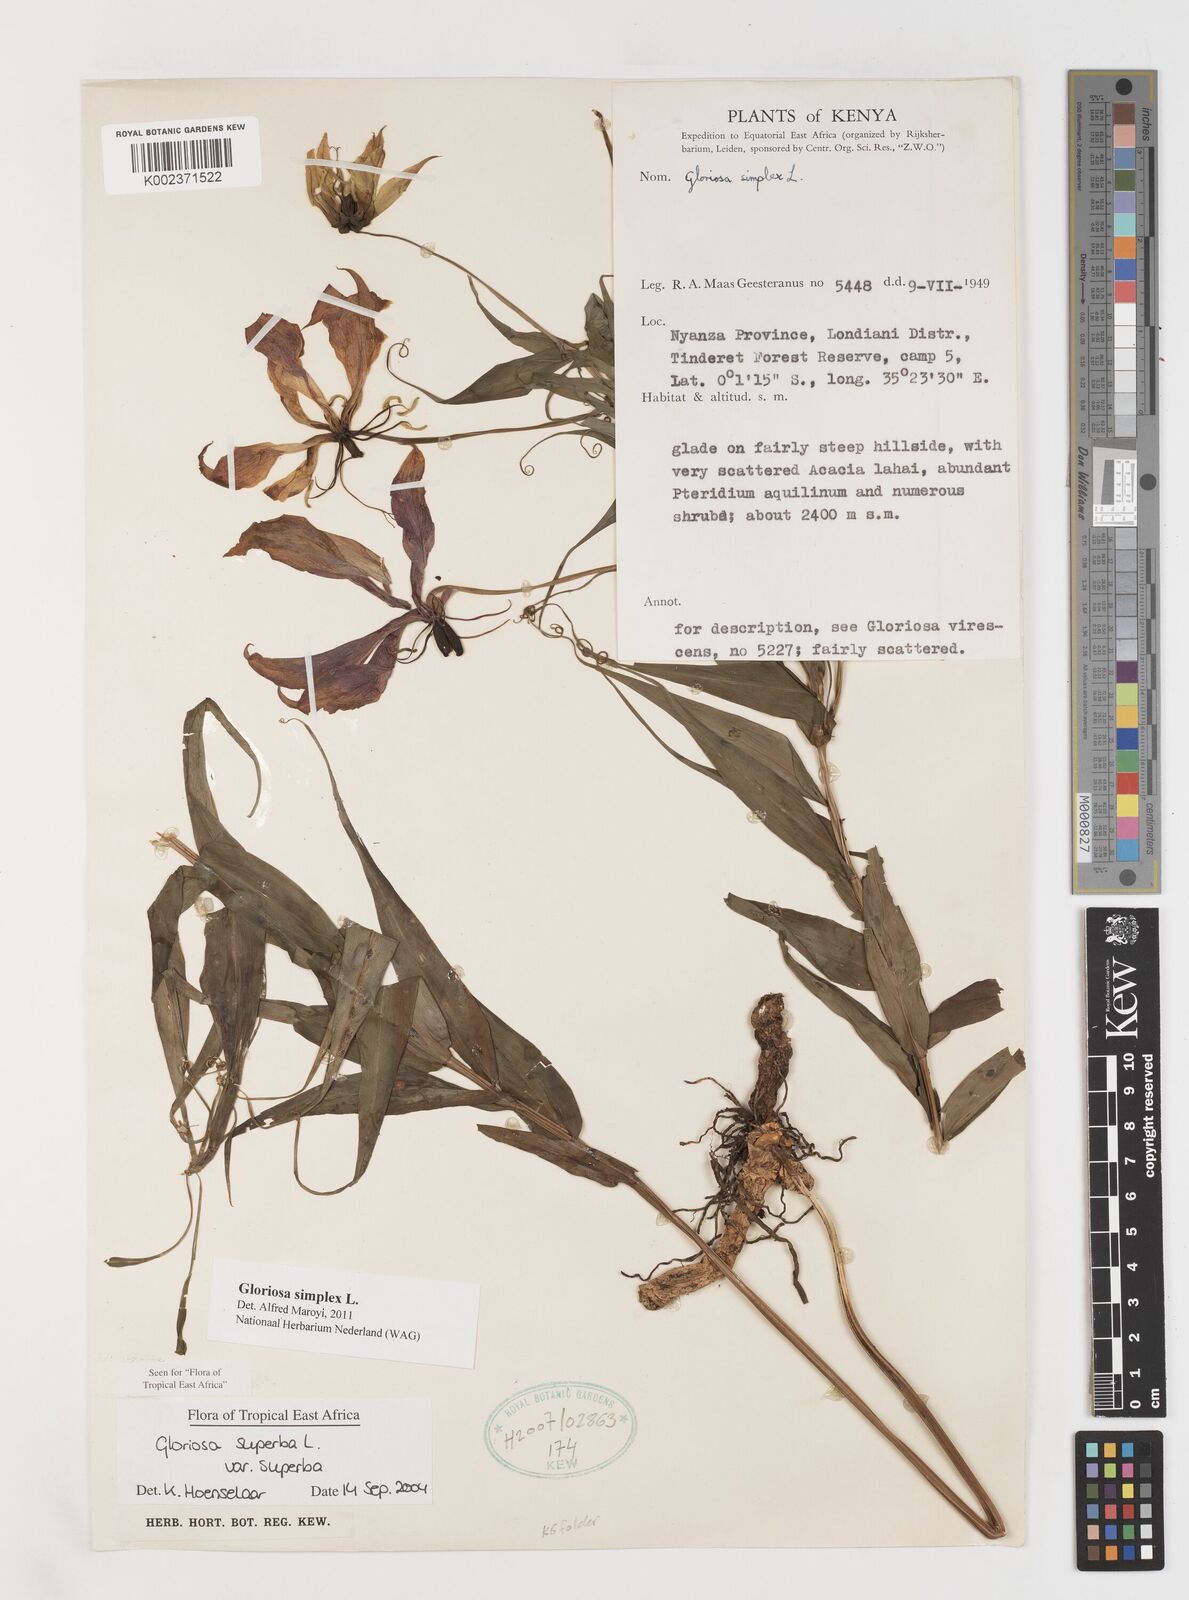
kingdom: Plantae
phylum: Tracheophyta
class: Liliopsida
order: Liliales
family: Colchicaceae
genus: Gloriosa
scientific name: Gloriosa
